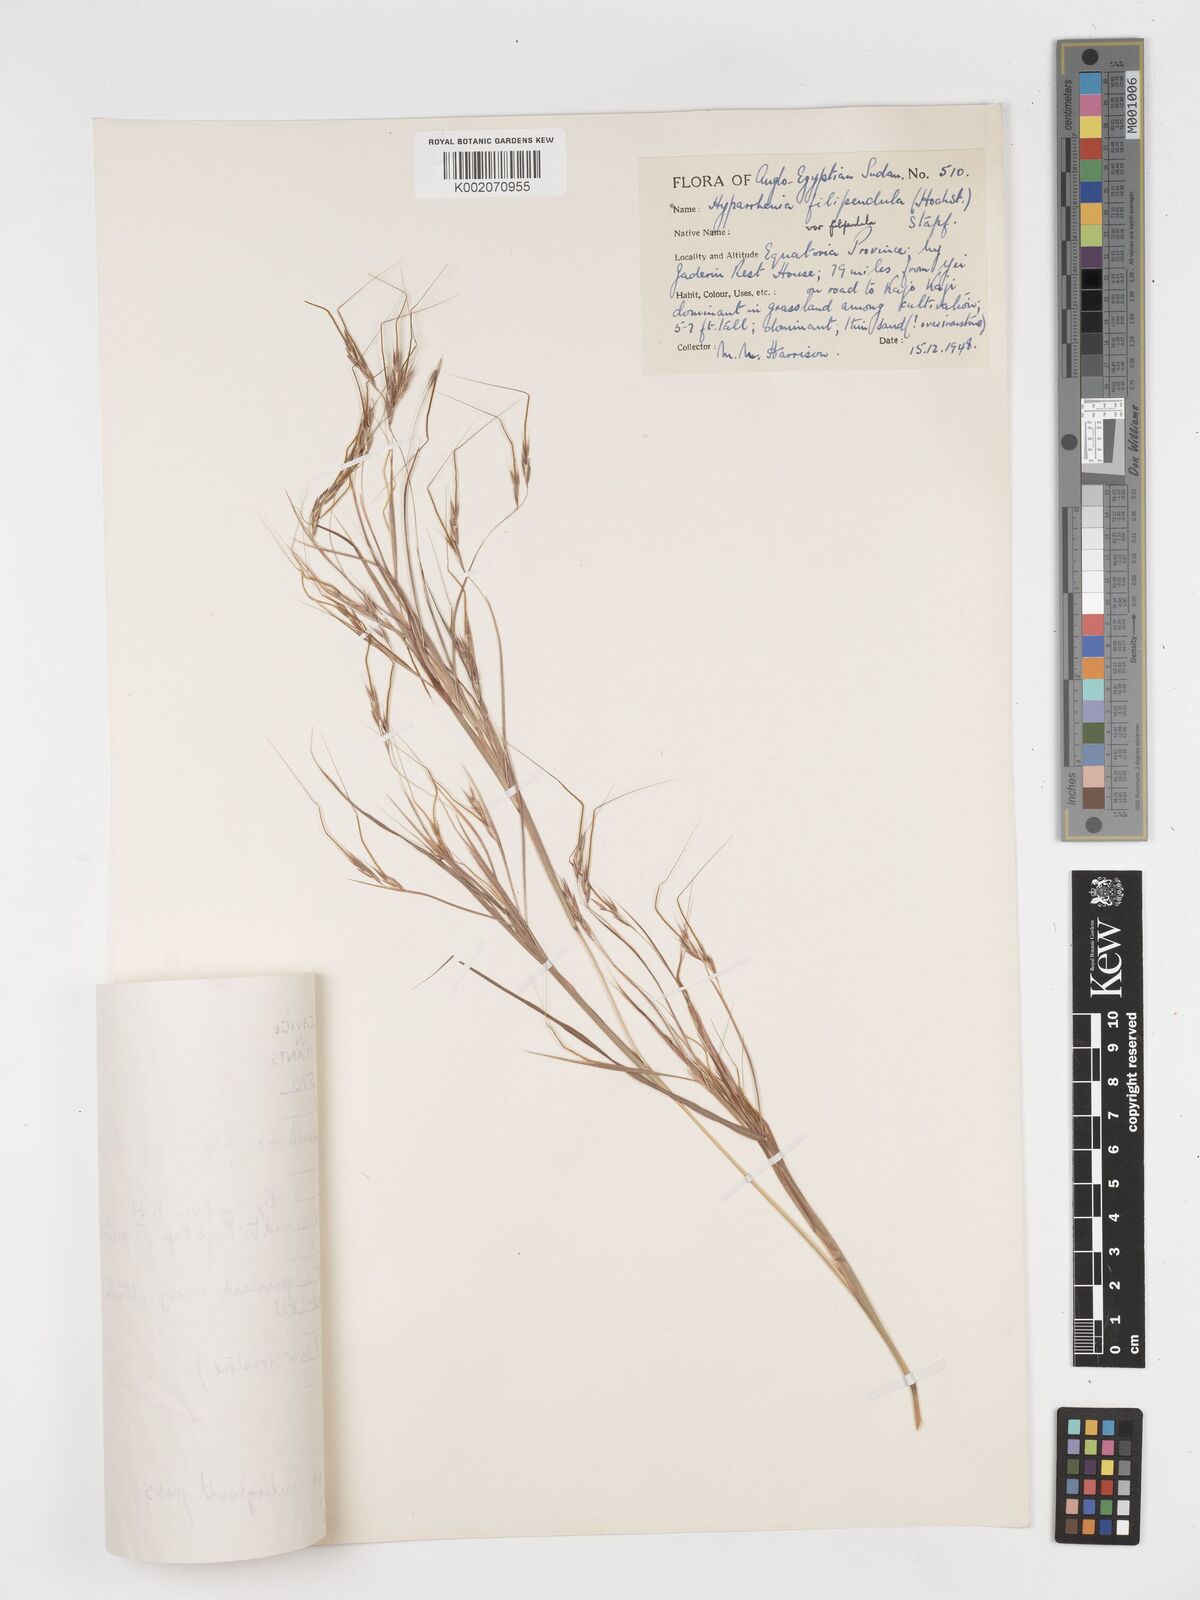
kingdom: Plantae
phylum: Tracheophyta
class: Liliopsida
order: Poales
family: Poaceae
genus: Hyparrhenia
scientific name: Hyparrhenia filipendula
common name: Tambookie grass
